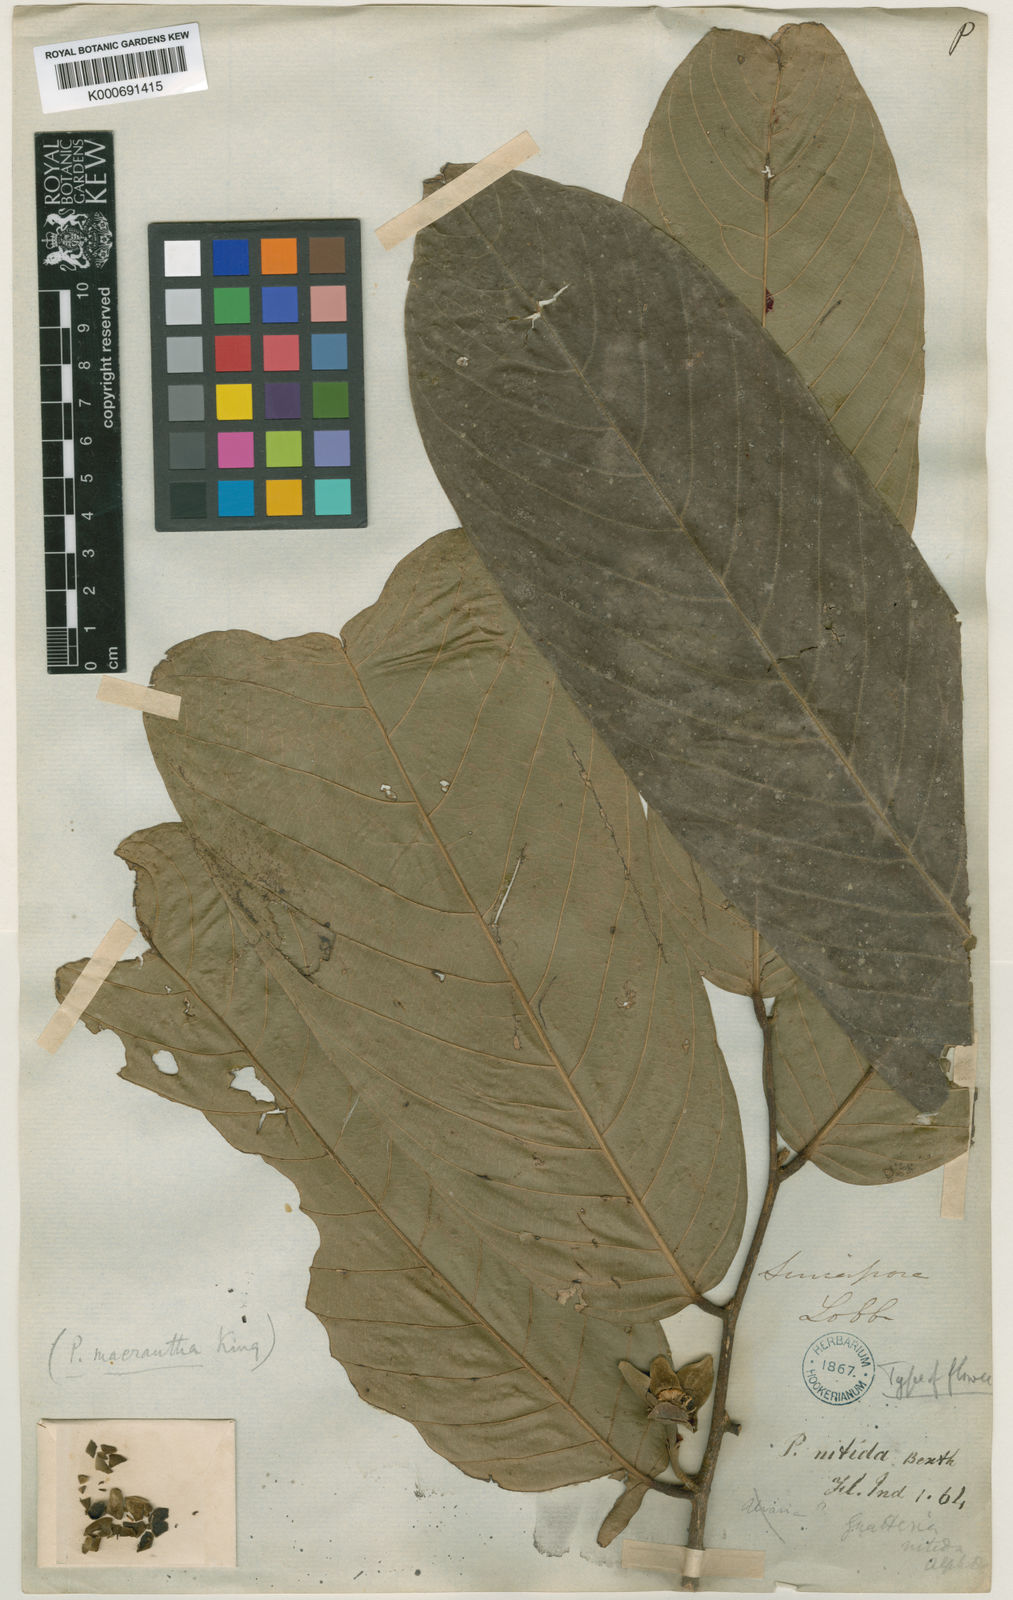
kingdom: Plantae
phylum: Tracheophyta
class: Magnoliopsida
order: Magnoliales
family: Annonaceae
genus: Enicosanthum
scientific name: Enicosanthum membranifolium
